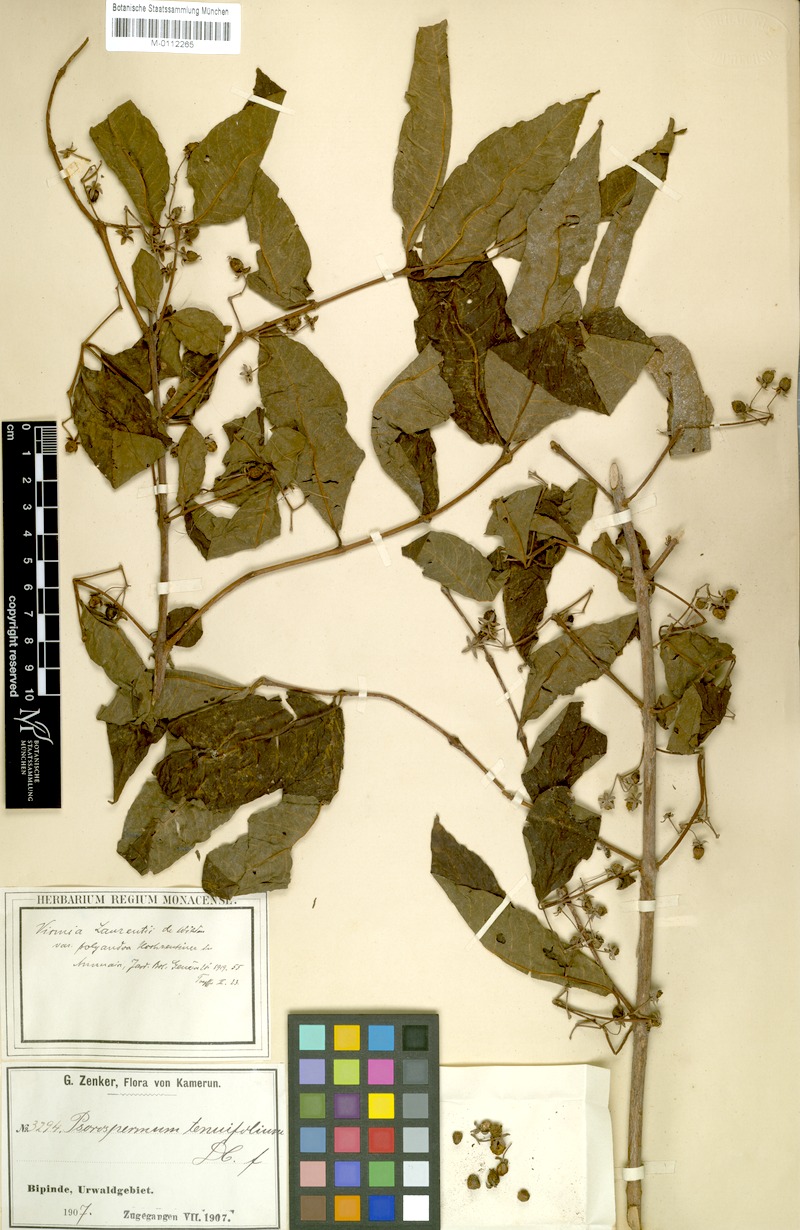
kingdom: Plantae
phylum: Tracheophyta
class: Magnoliopsida
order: Malpighiales
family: Hypericaceae
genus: Psorospermum
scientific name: Psorospermum laurentii
